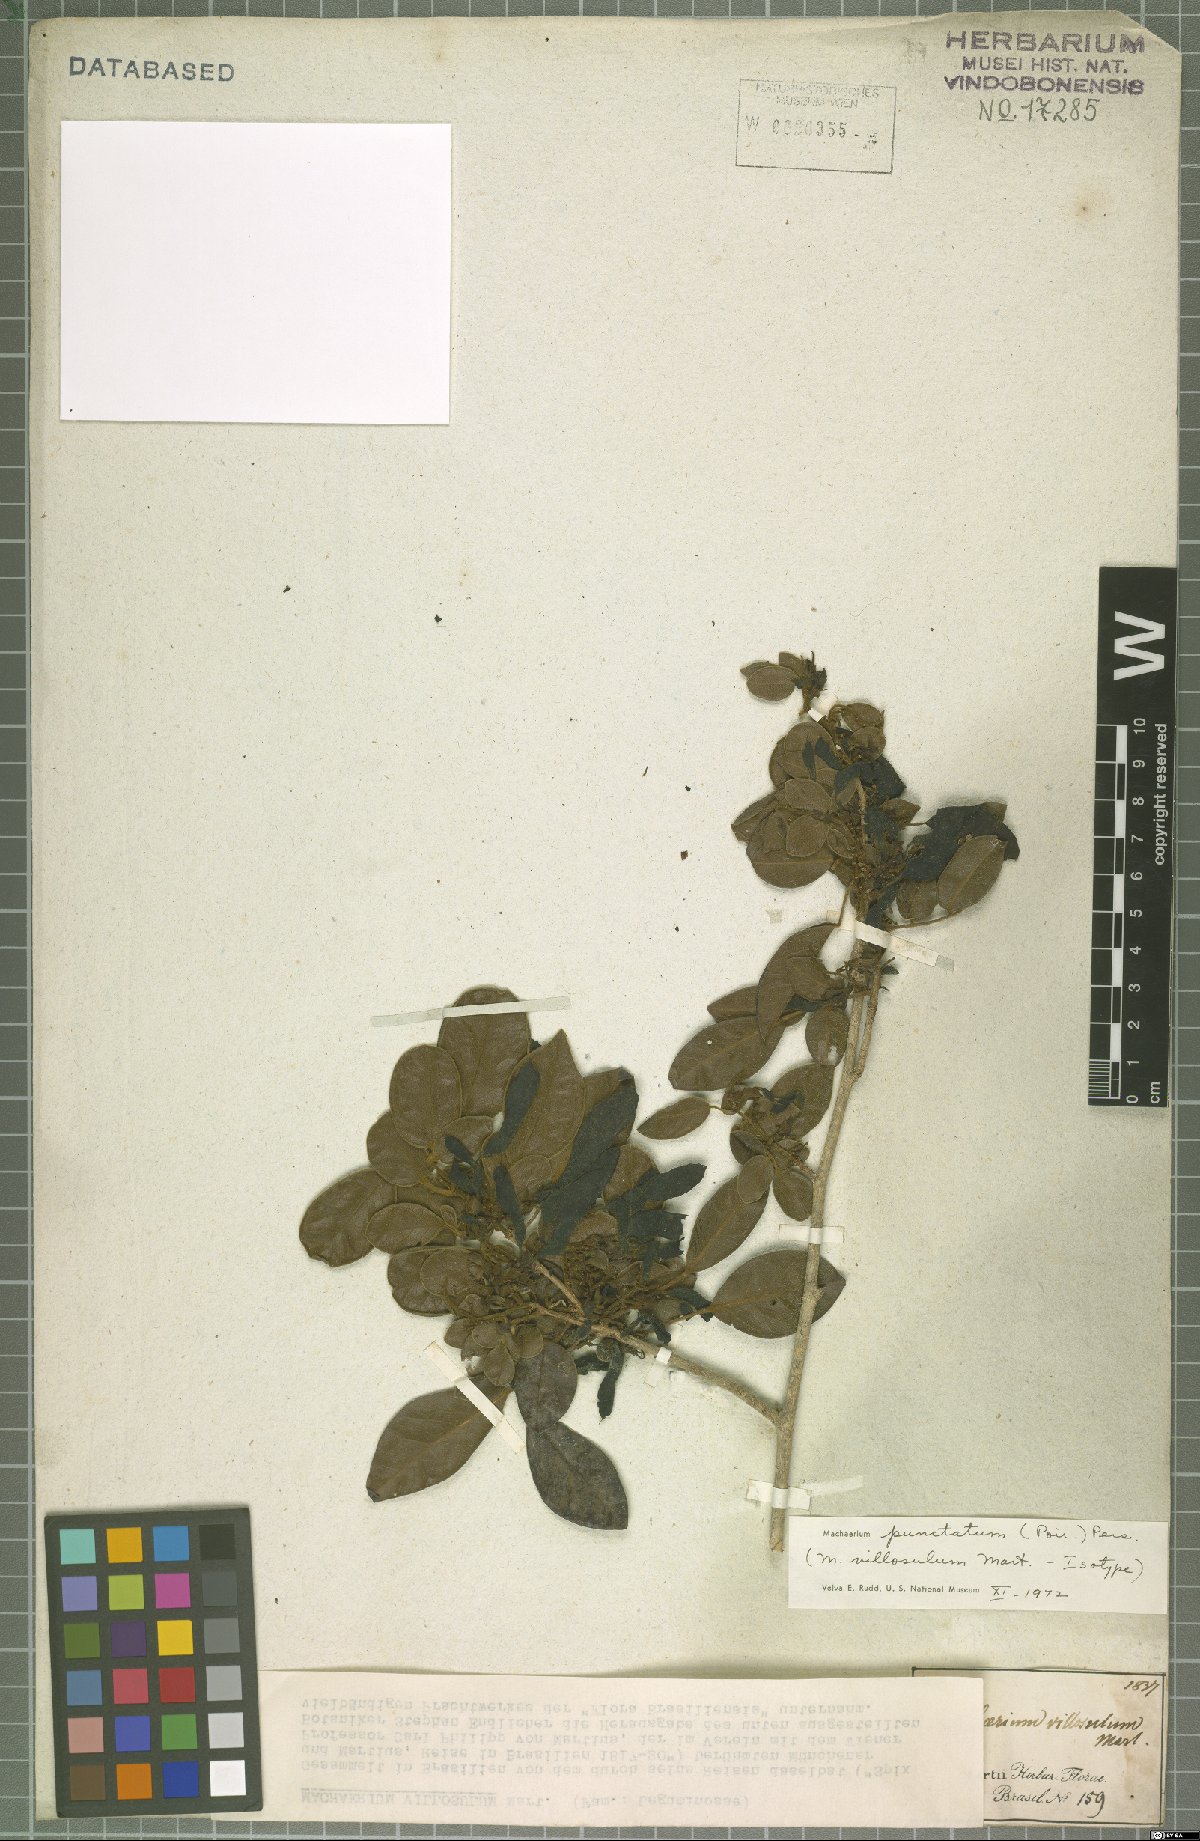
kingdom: Plantae
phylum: Tracheophyta
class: Magnoliopsida
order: Fabales
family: Fabaceae
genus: Machaerium
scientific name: Machaerium punctatum
